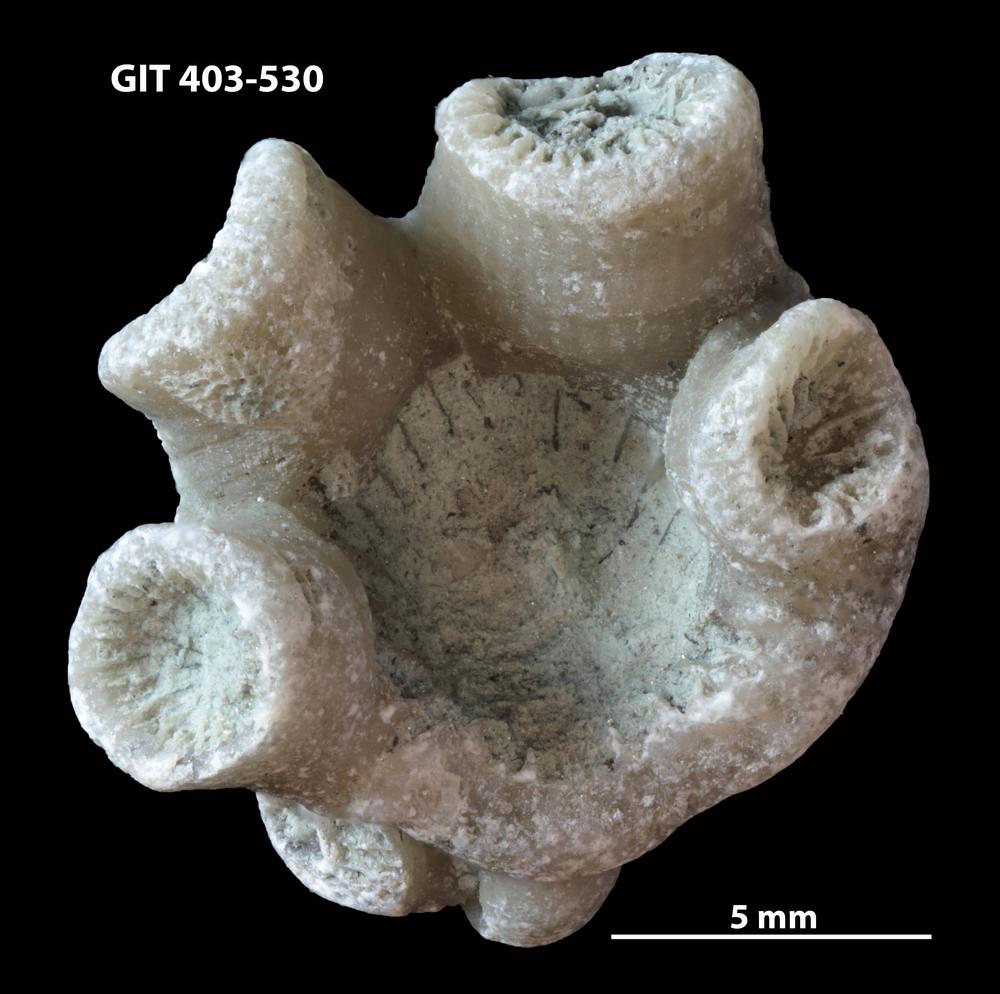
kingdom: Animalia
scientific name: Animalia
